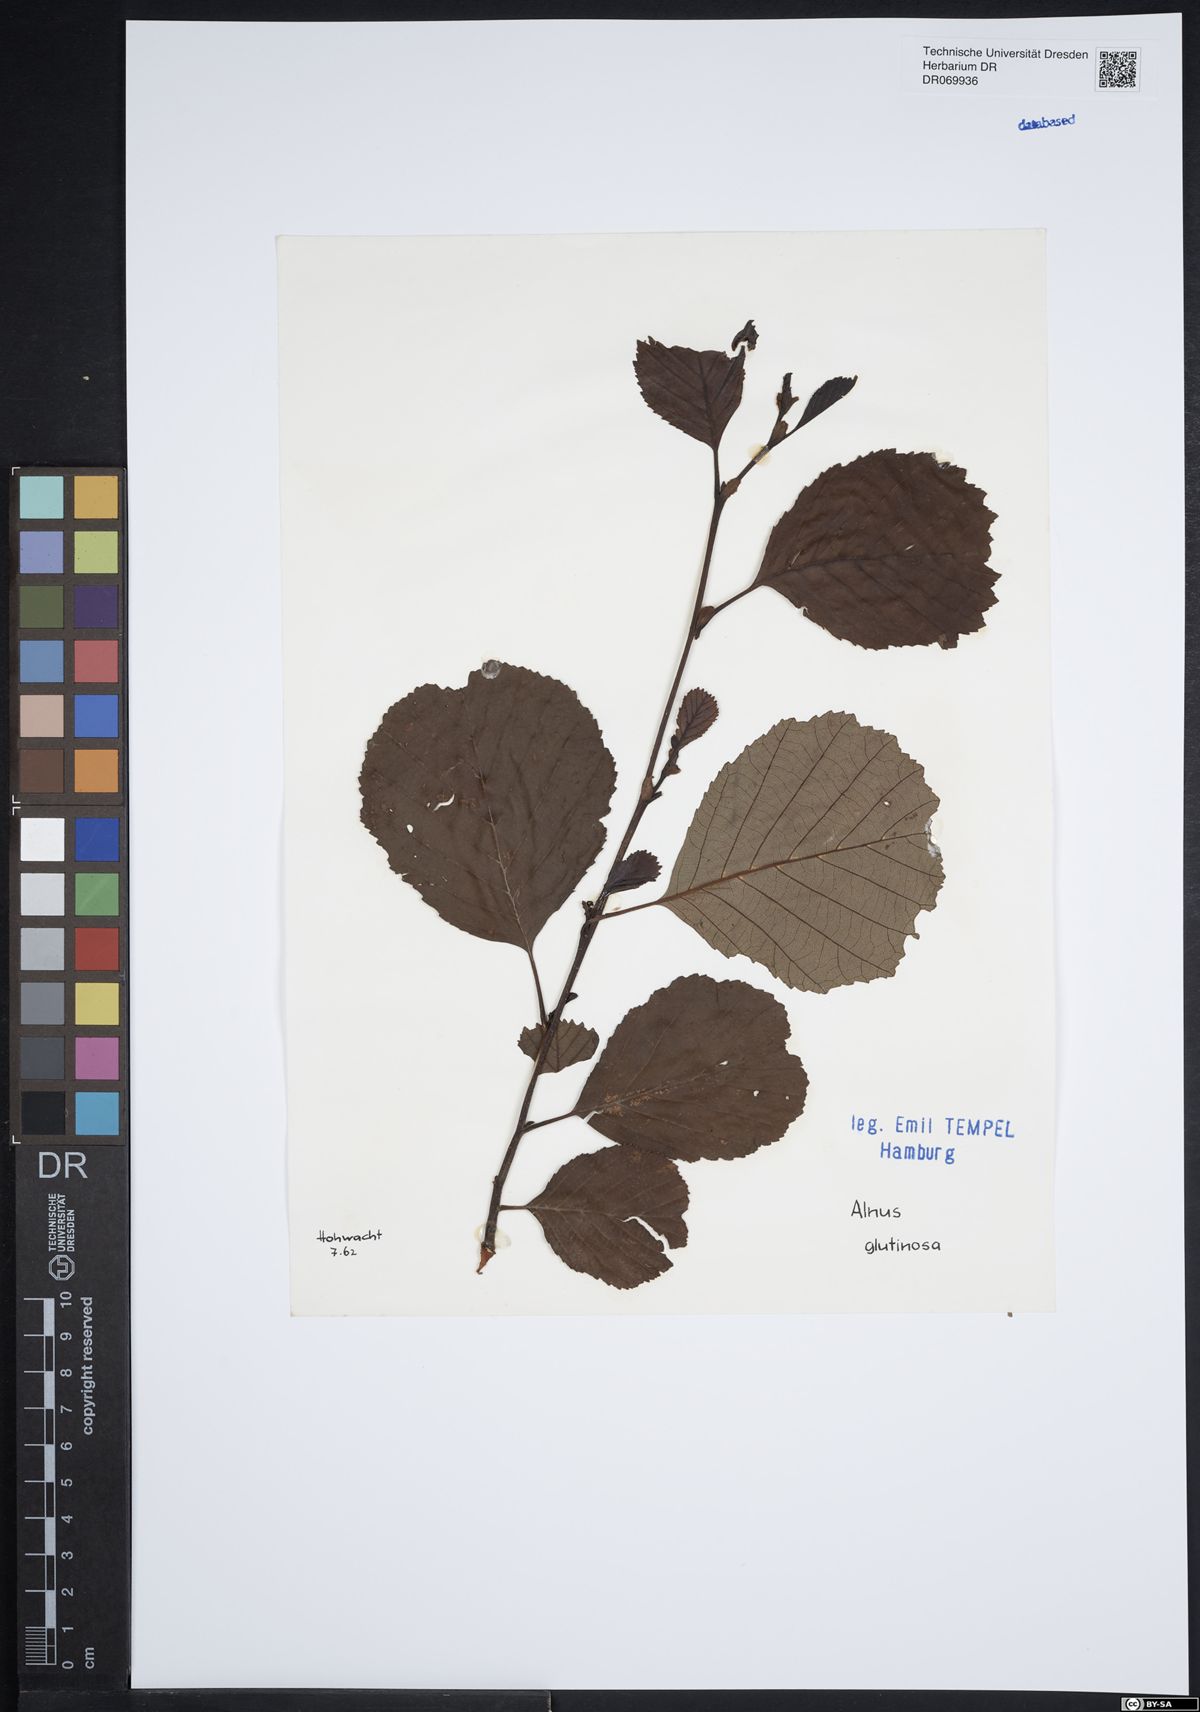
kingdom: Plantae
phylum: Tracheophyta
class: Magnoliopsida
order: Fagales
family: Betulaceae
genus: Alnus
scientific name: Alnus glutinosa
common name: Black alder
